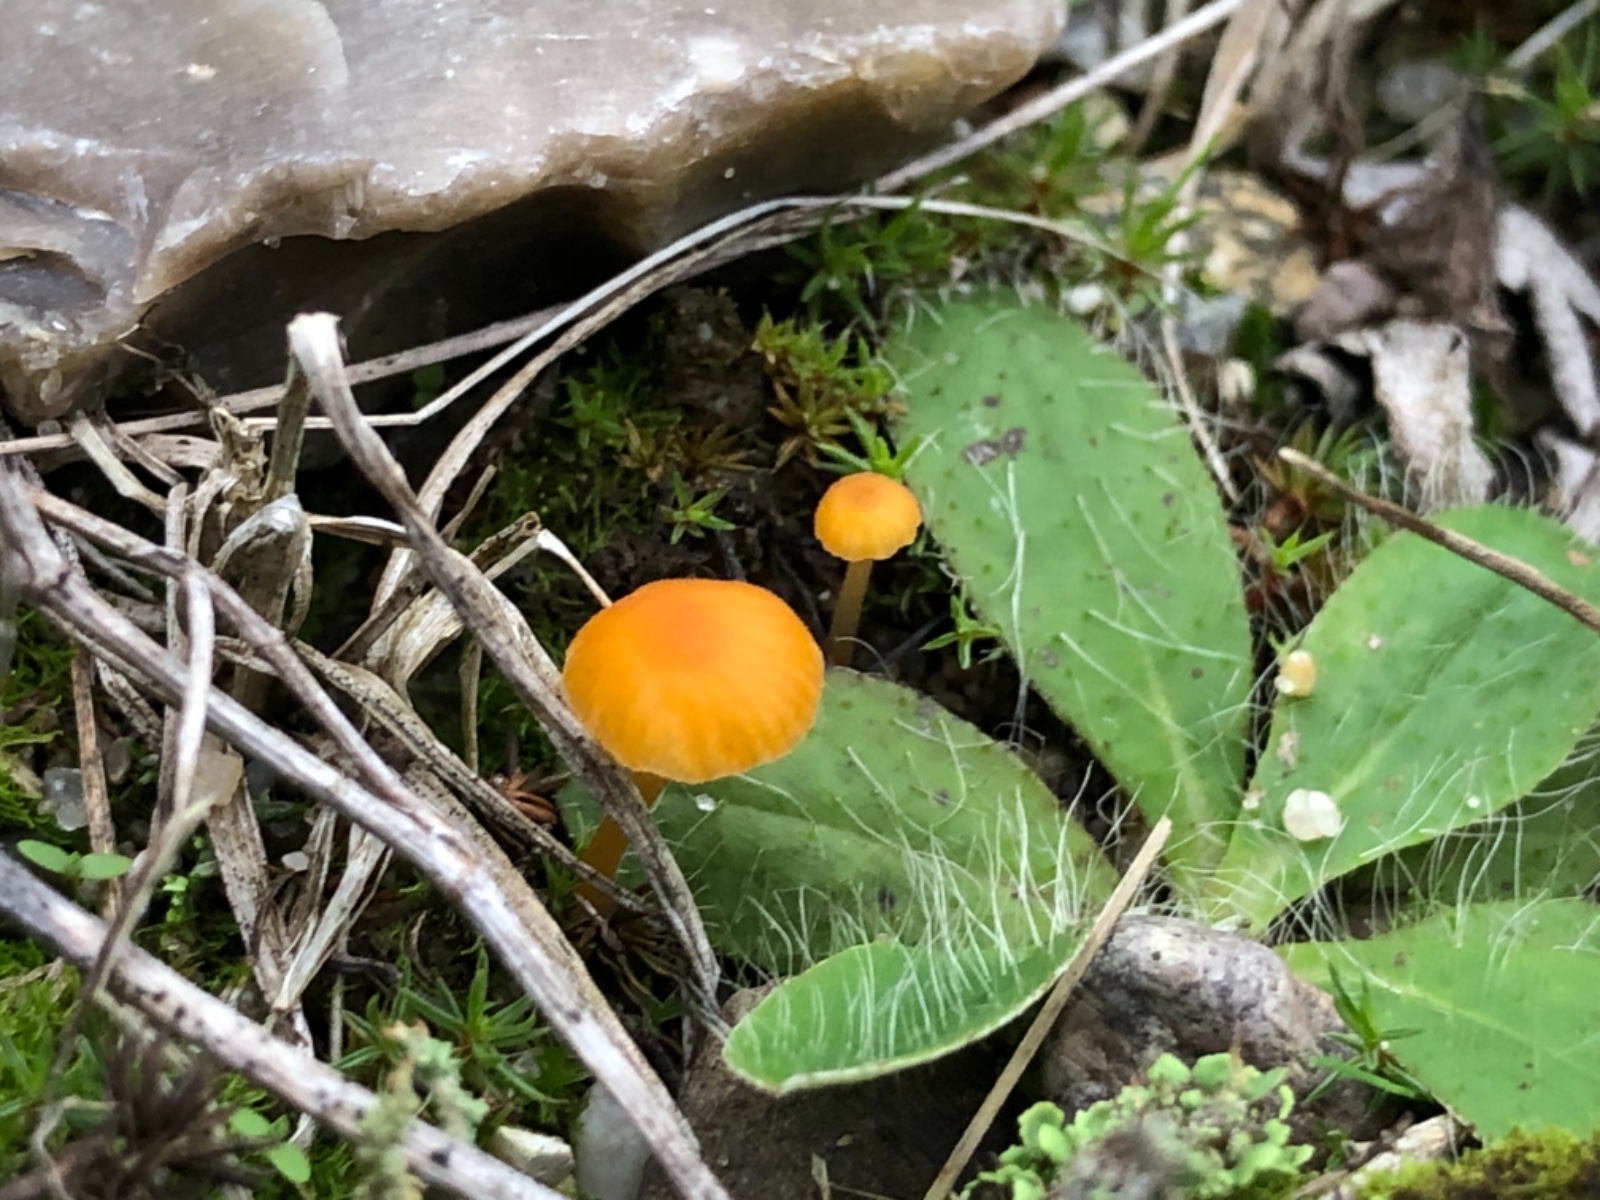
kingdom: Fungi
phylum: Basidiomycota
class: Agaricomycetes
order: Hymenochaetales
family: Rickenellaceae
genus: Rickenella
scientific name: Rickenella fibula
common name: orange mosnavlehat
